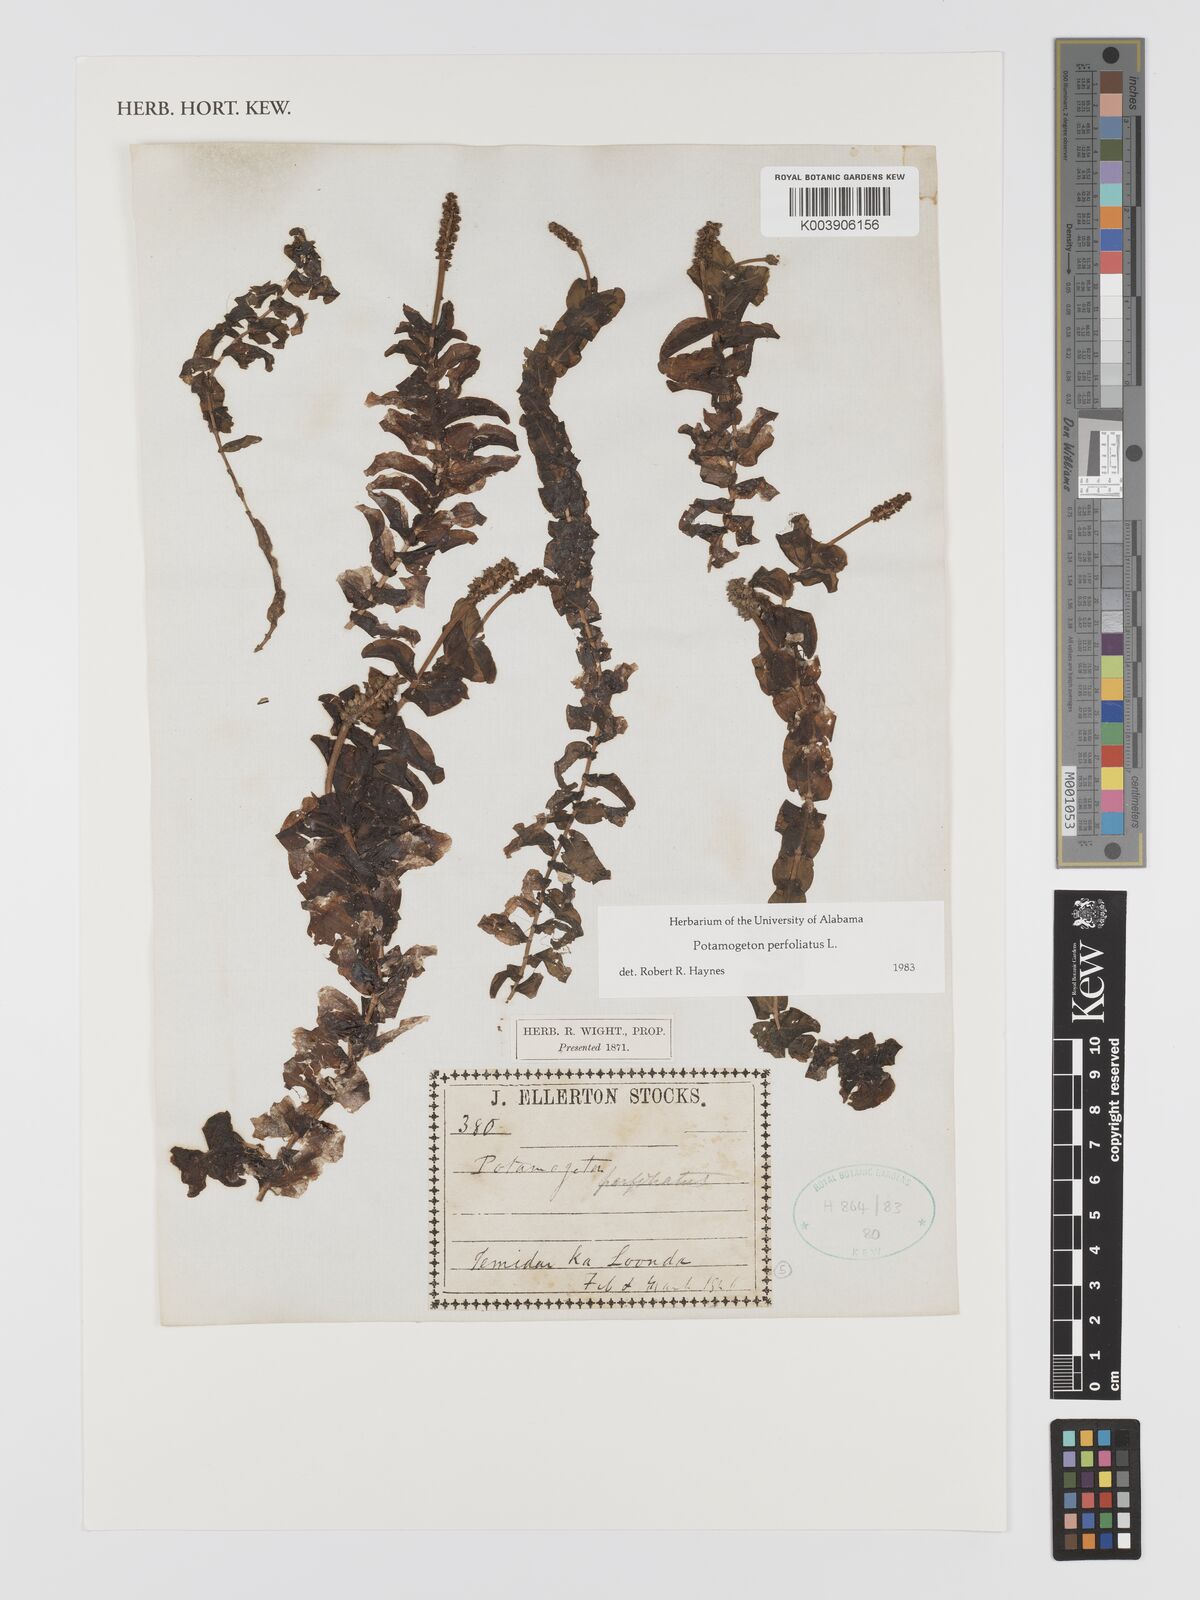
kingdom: Plantae
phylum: Tracheophyta
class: Liliopsida
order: Alismatales
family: Potamogetonaceae
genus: Stuckenia
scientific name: Stuckenia pectinata
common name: Sago pondweed
